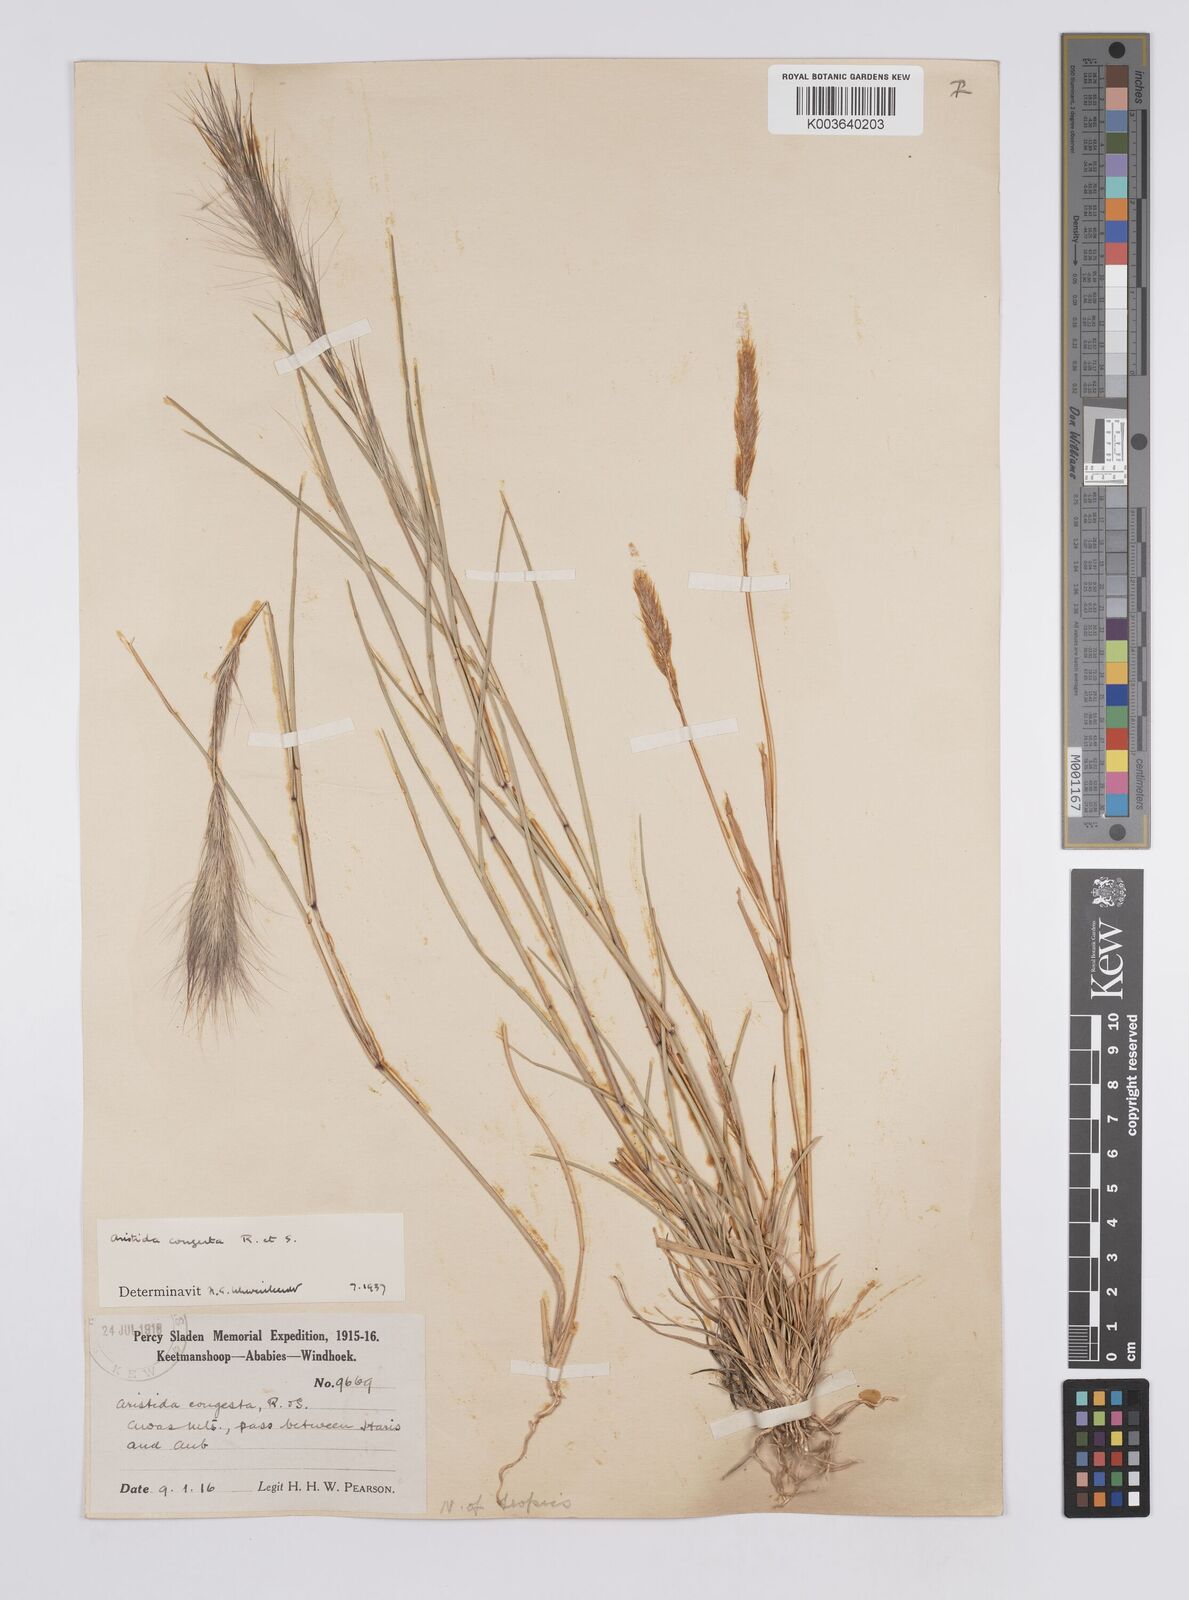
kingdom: Plantae
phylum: Tracheophyta
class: Liliopsida
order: Poales
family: Poaceae
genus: Aristida
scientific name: Aristida congesta
